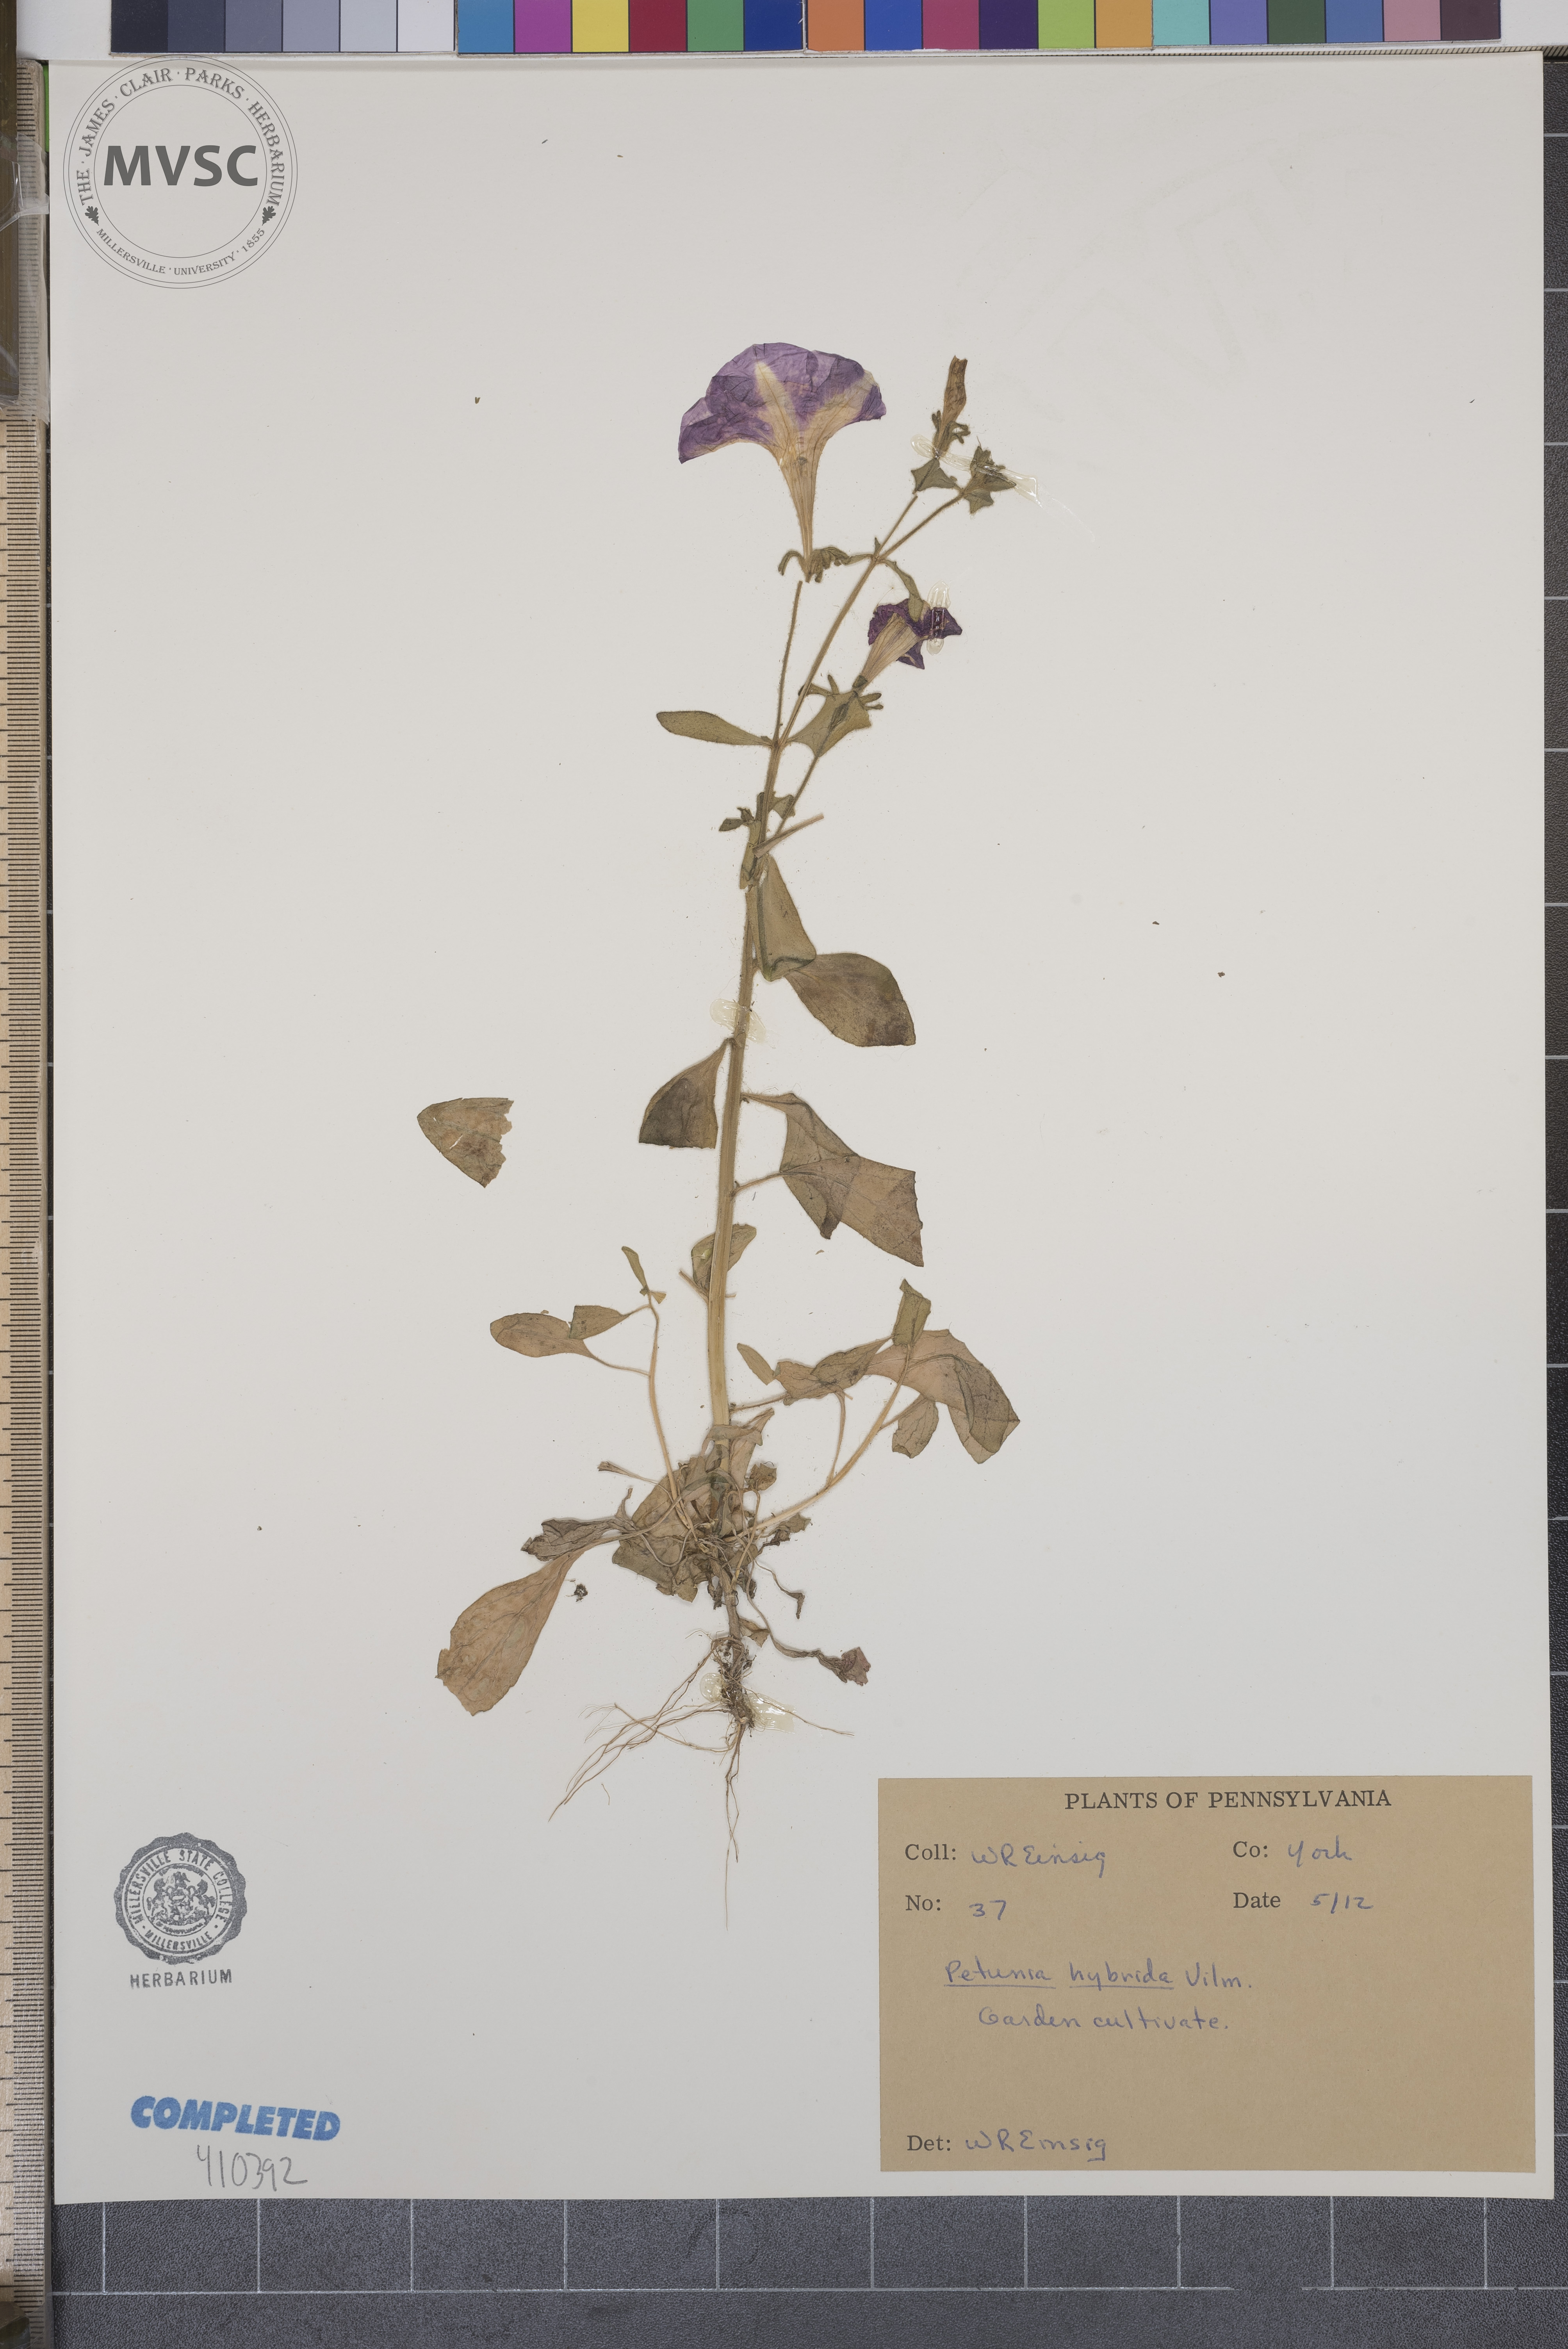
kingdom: Plantae
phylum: Tracheophyta
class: Magnoliopsida
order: Solanales
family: Solanaceae
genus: Petunia
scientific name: Petunia atkinsiana
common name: Petunia
